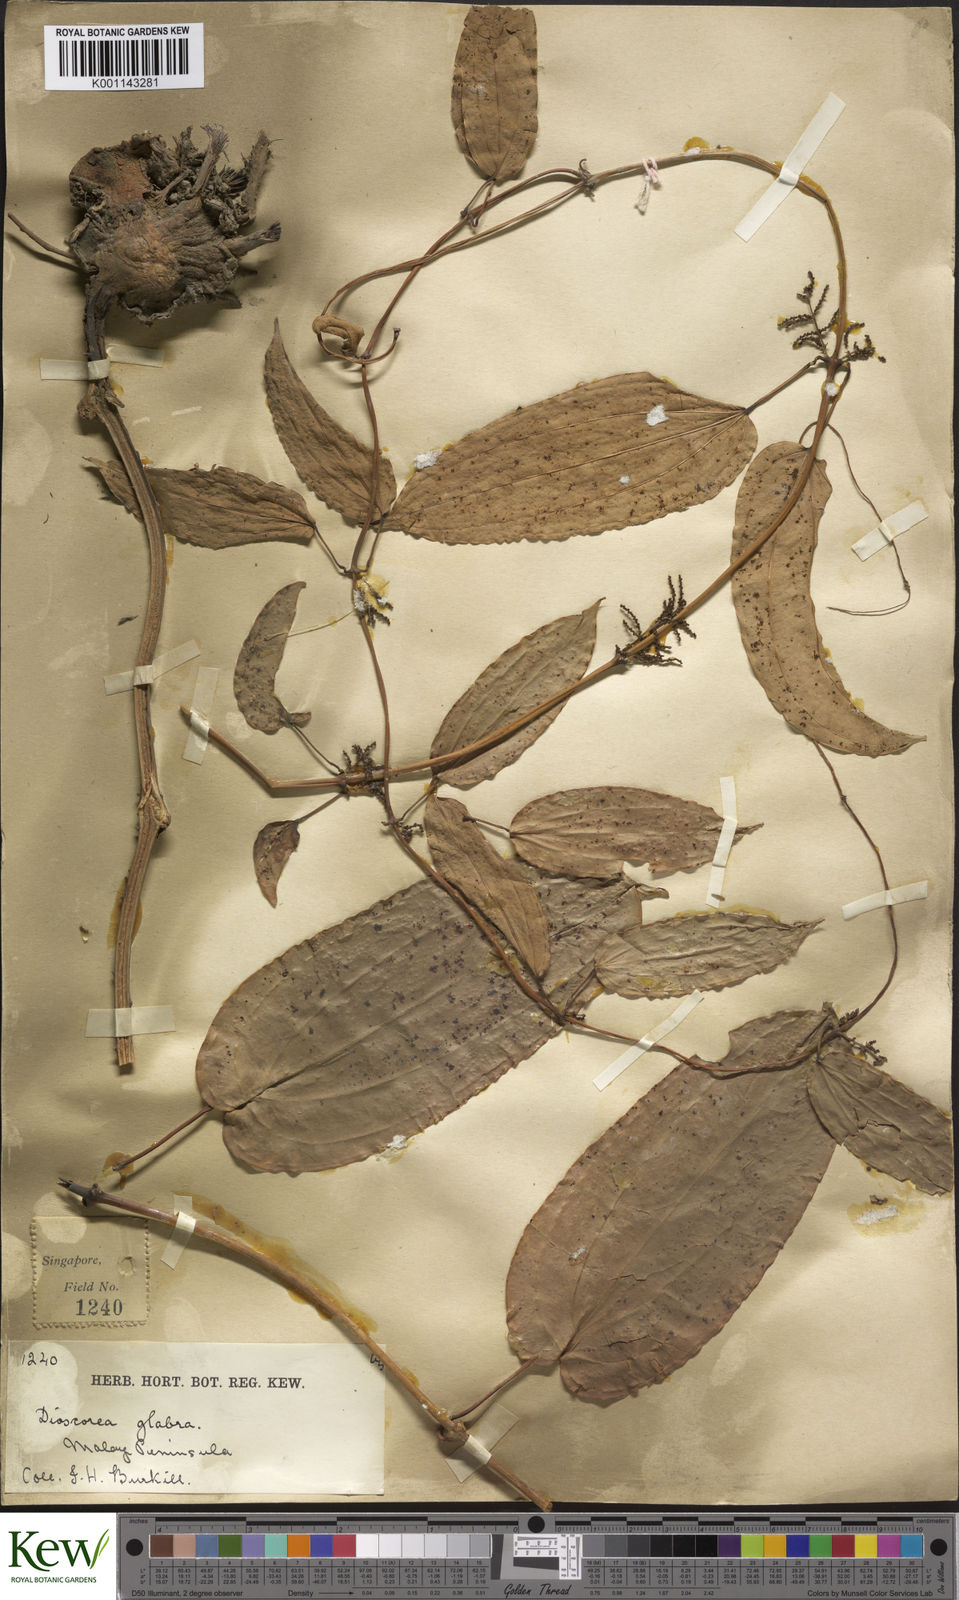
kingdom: Plantae
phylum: Tracheophyta
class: Liliopsida
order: Dioscoreales
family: Dioscoreaceae
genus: Dioscorea
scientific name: Dioscorea glabra
